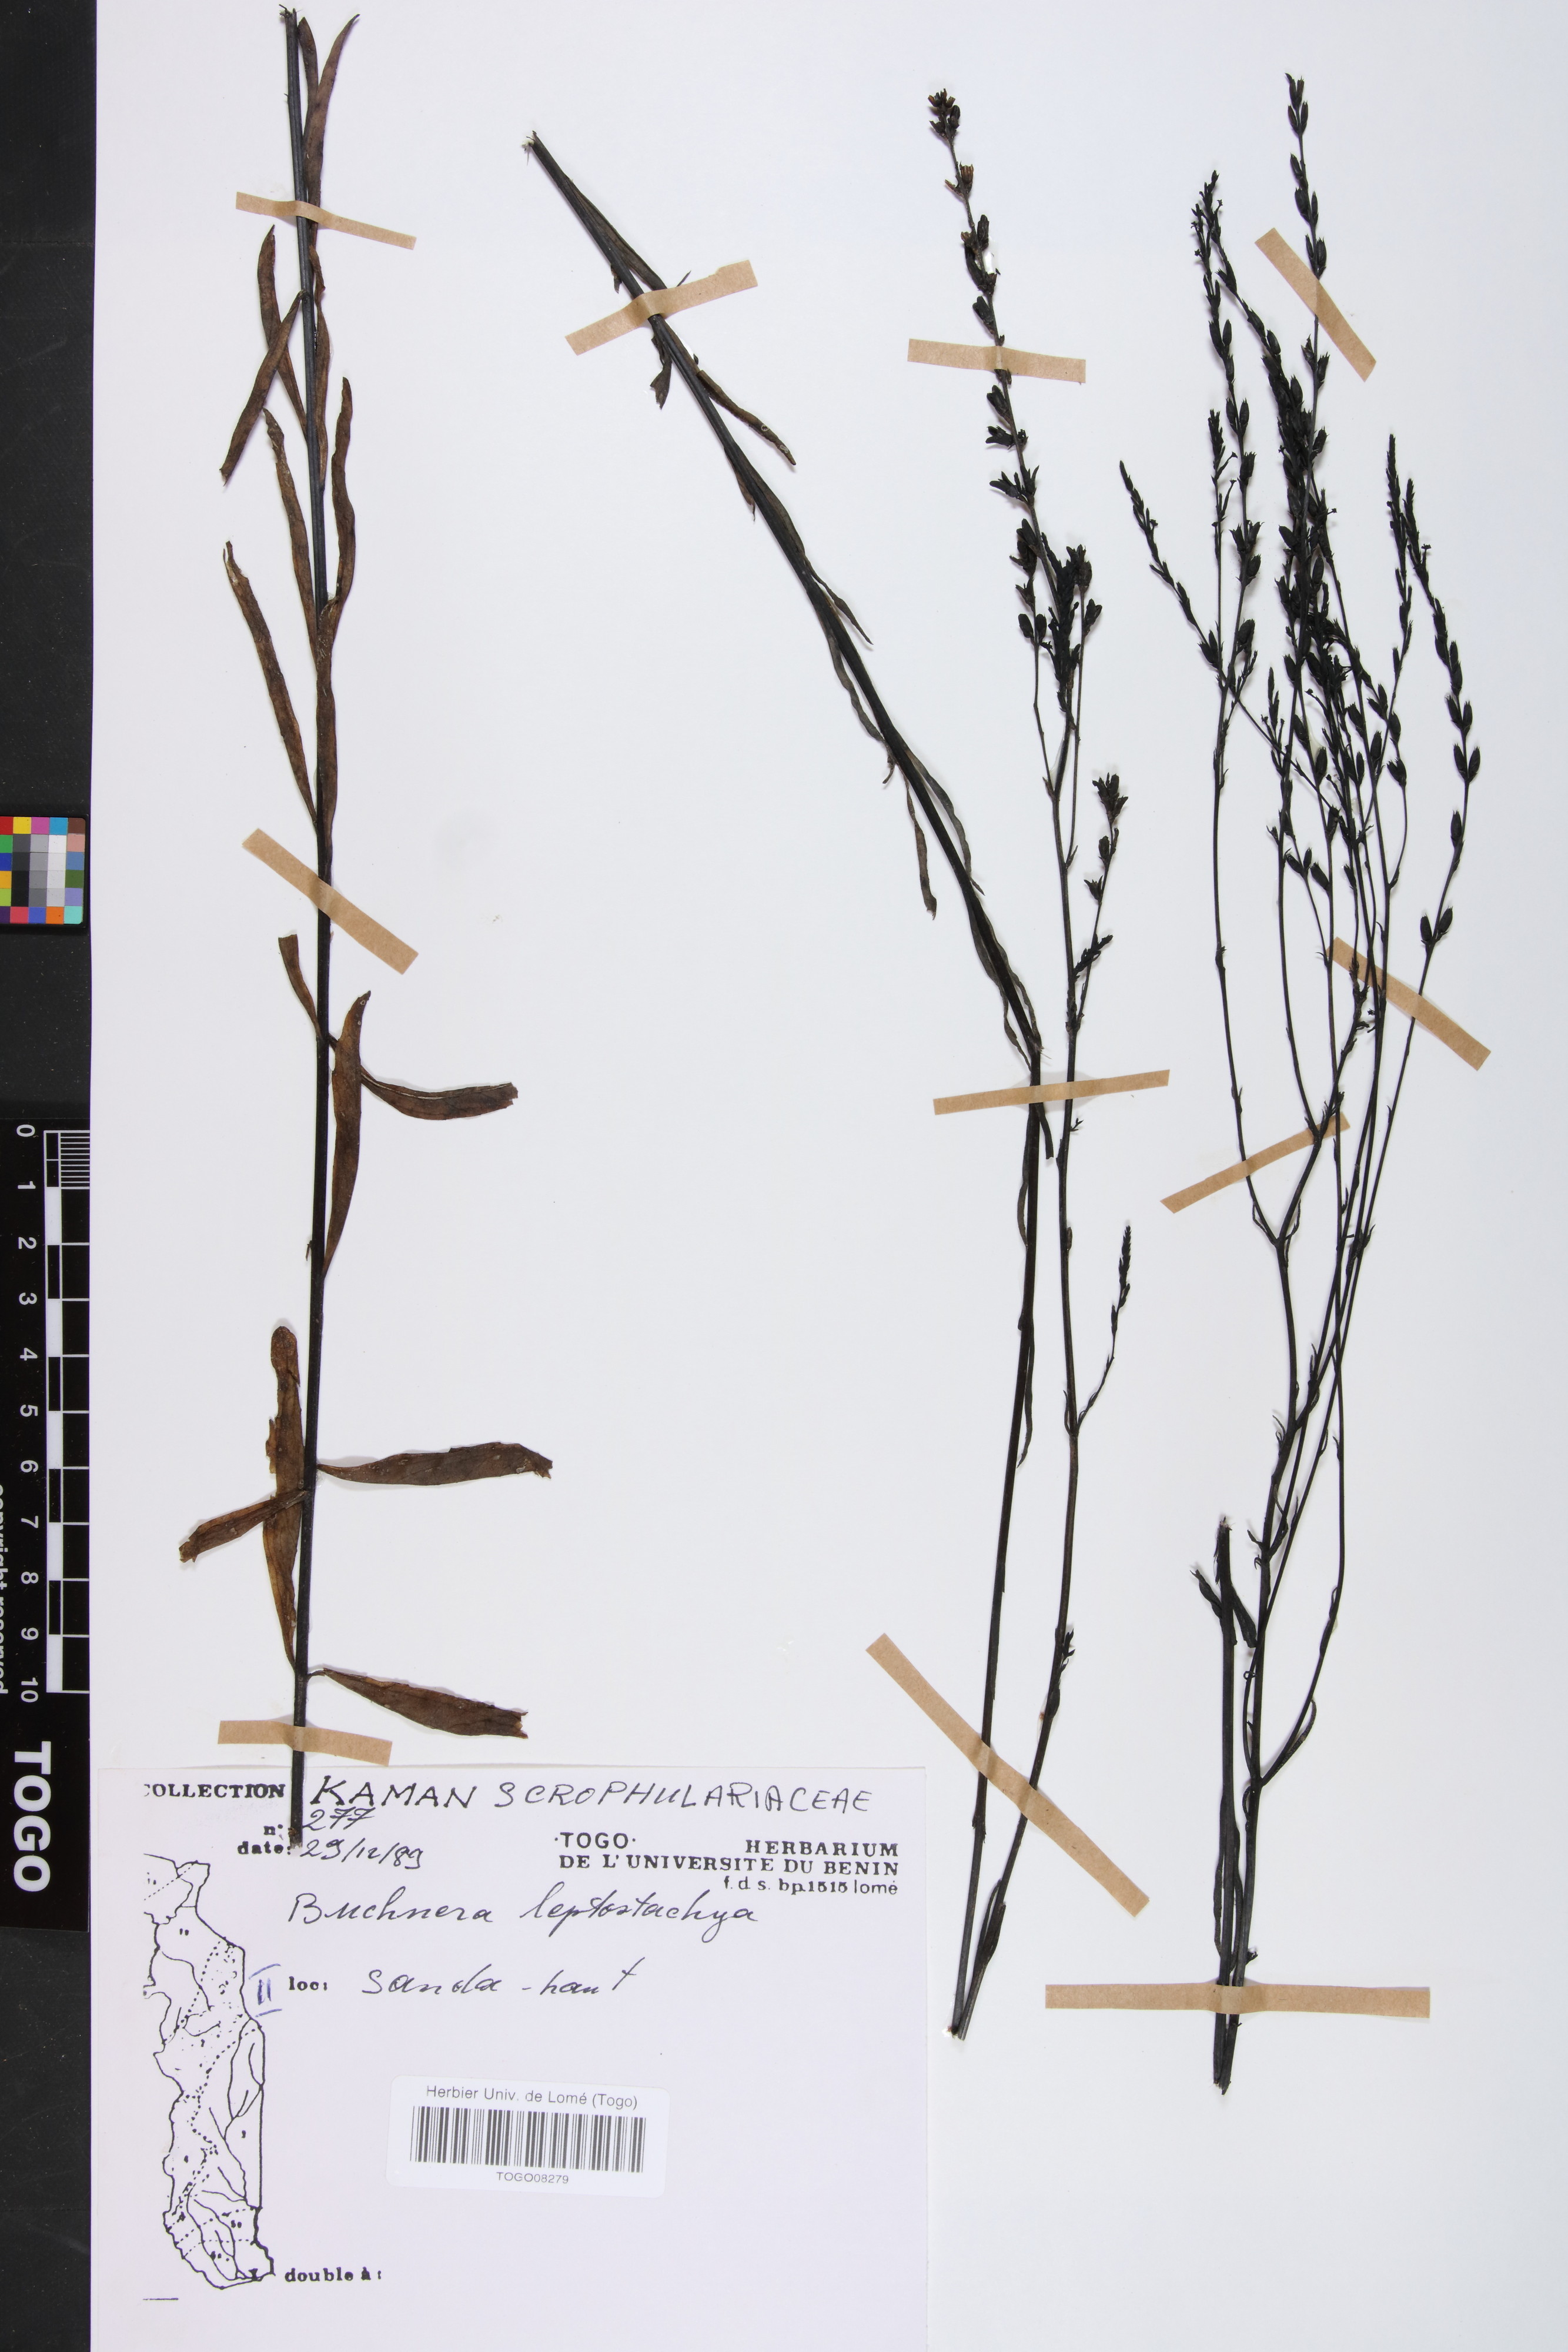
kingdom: Plantae
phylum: Tracheophyta
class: Magnoliopsida
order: Lamiales
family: Orobanchaceae
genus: Buchnera
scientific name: Buchnera leptostachya
